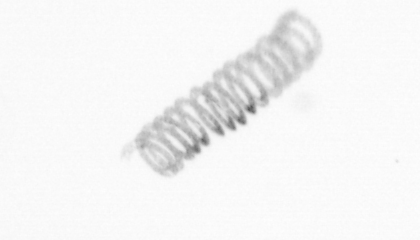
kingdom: Chromista
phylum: Ochrophyta
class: Bacillariophyceae
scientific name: Bacillariophyceae
